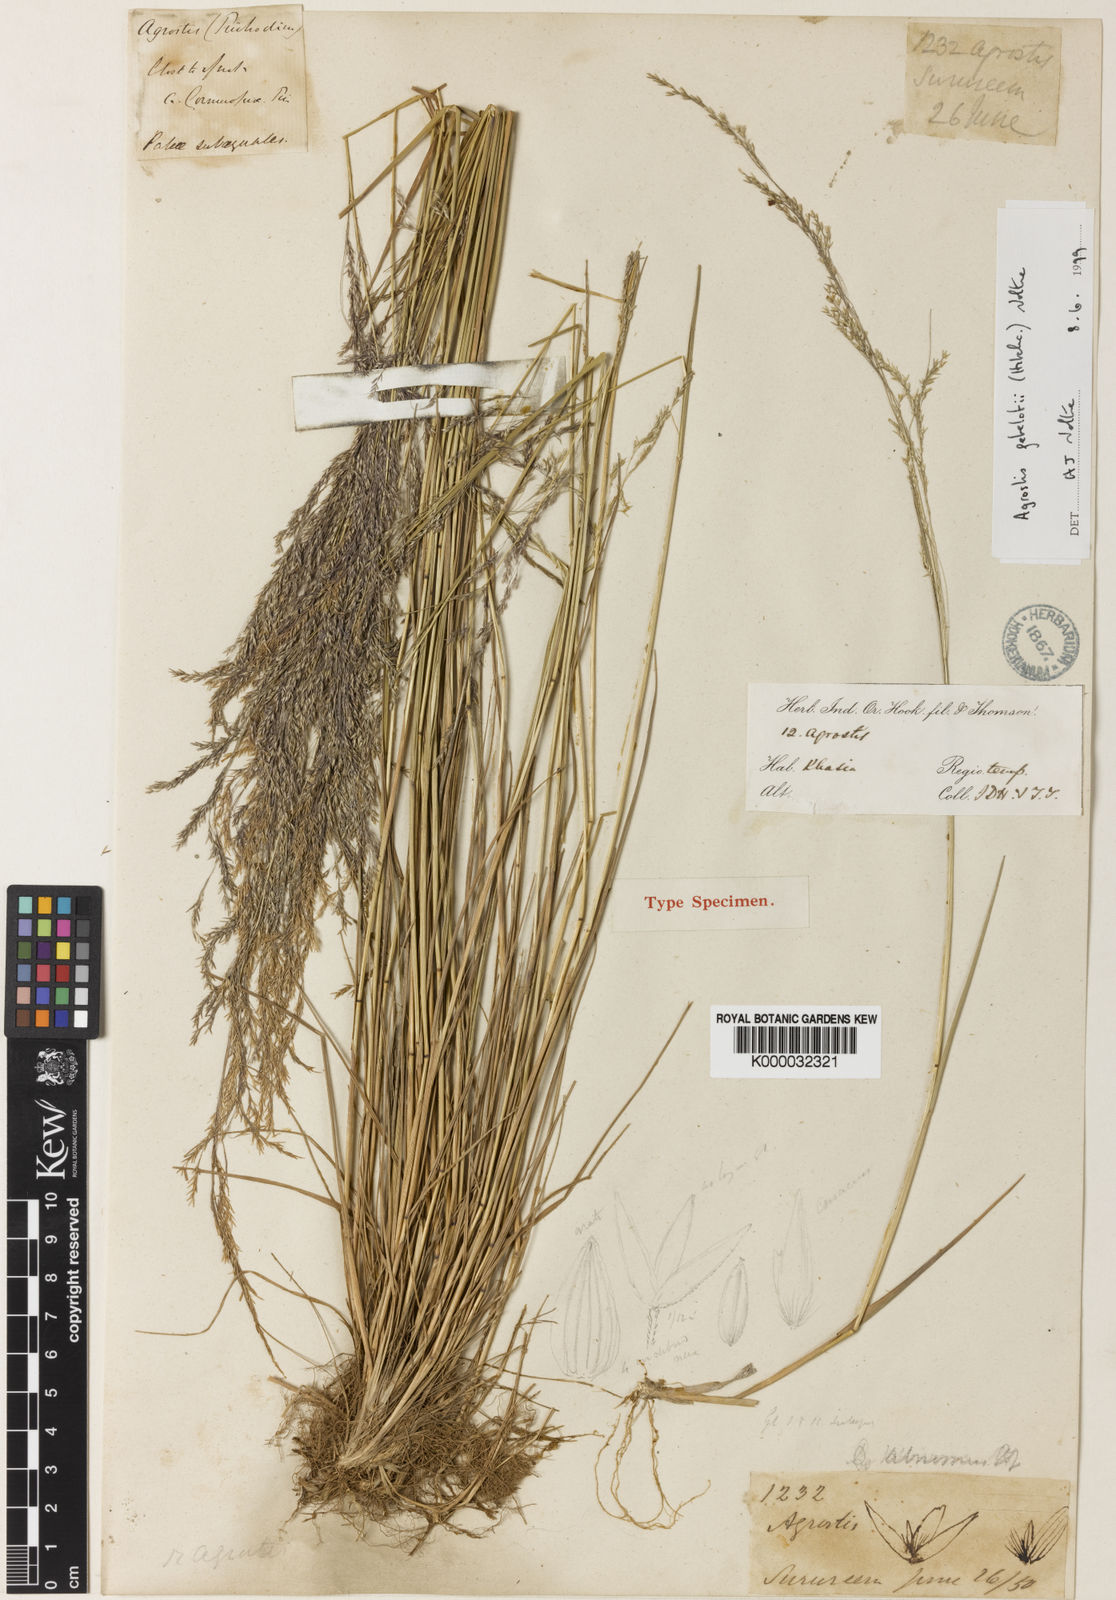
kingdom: Plantae
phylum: Tracheophyta
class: Liliopsida
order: Poales
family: Poaceae
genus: Calamagrostis
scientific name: Calamagrostis abnormis
